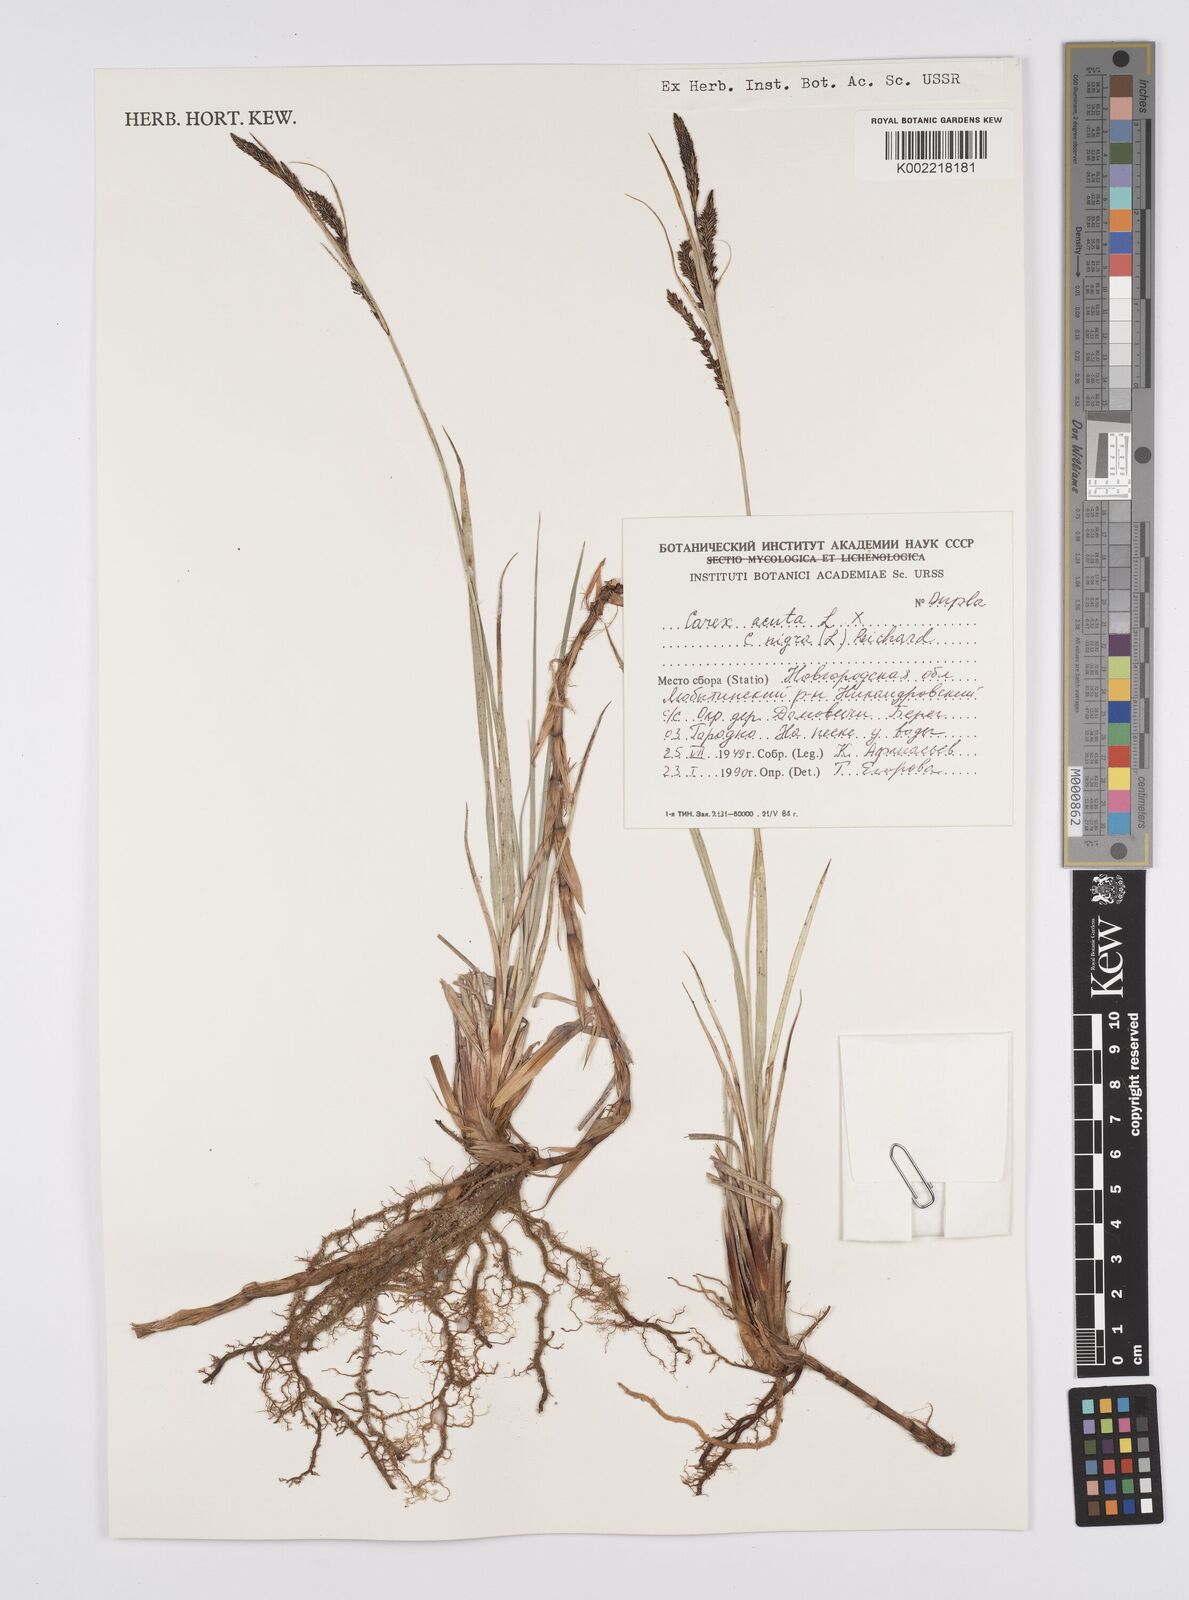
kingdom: Plantae
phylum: Tracheophyta
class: Liliopsida
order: Poales
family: Cyperaceae
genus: Carex
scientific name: Carex acuta
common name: Slender tufted-sedge
